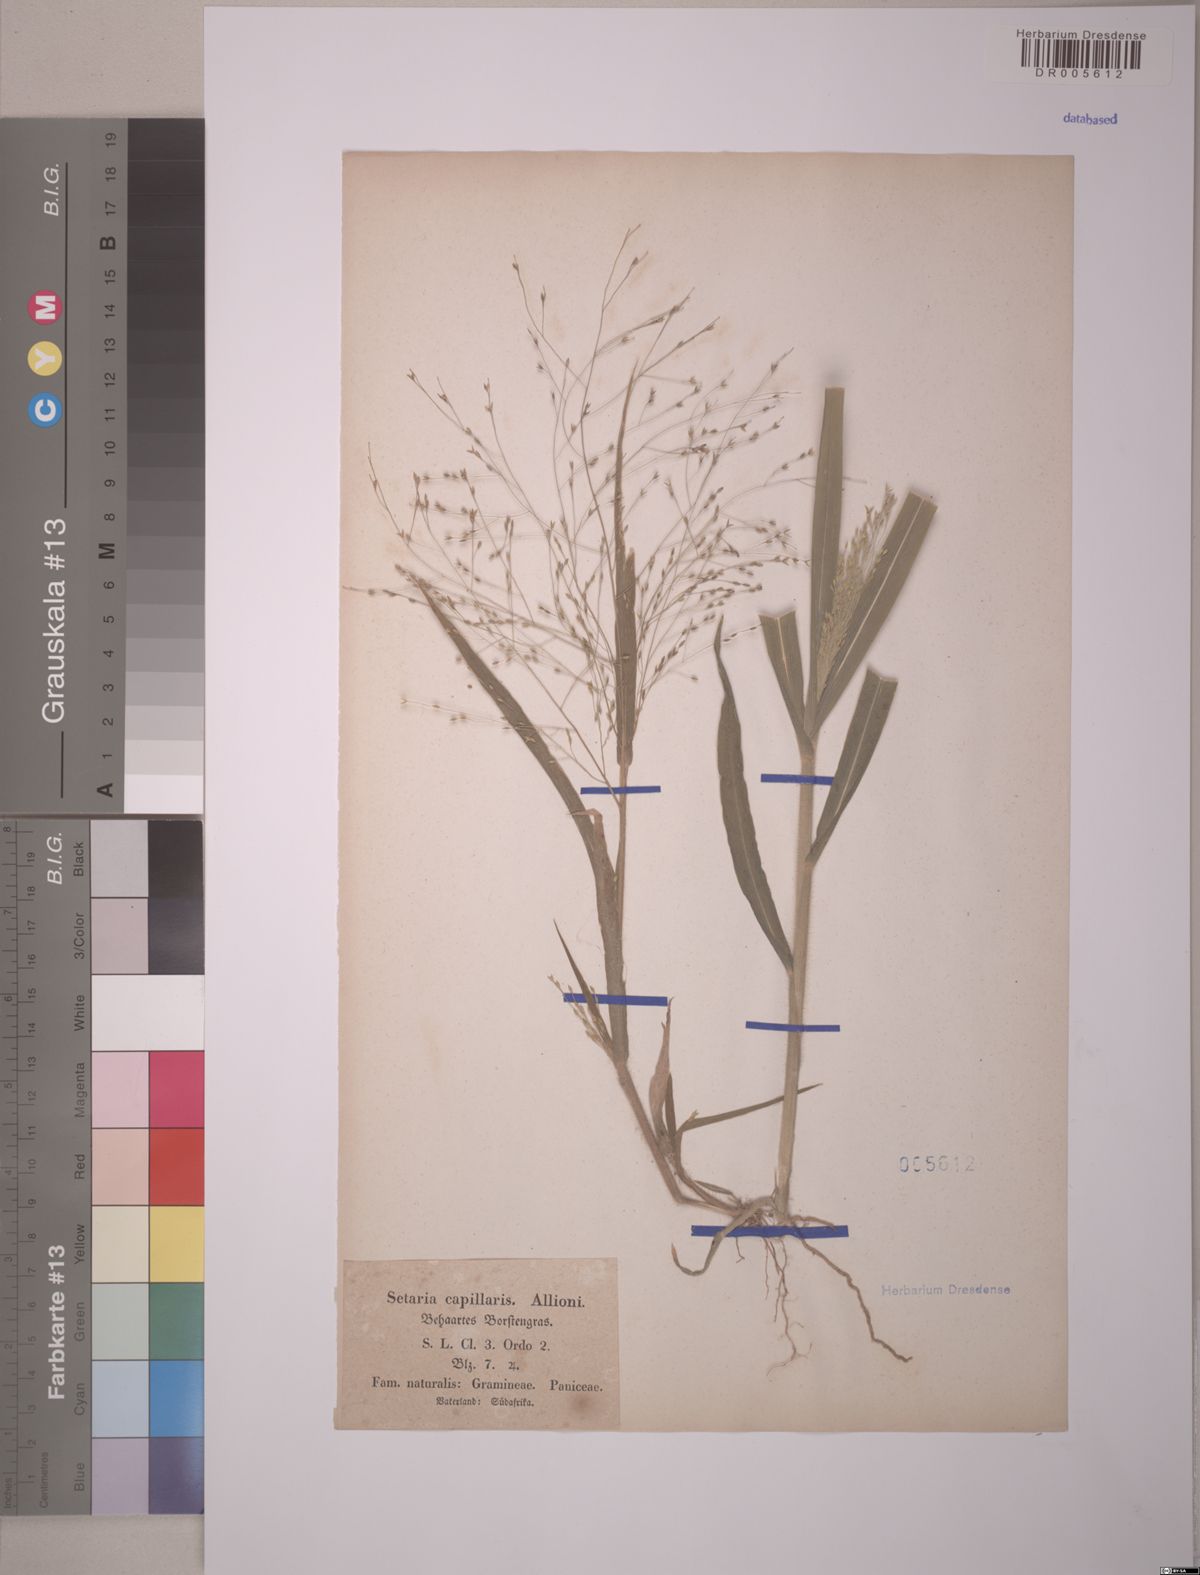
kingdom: Plantae
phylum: Tracheophyta
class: Liliopsida
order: Poales
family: Poaceae
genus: Setaria
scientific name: Setaria
